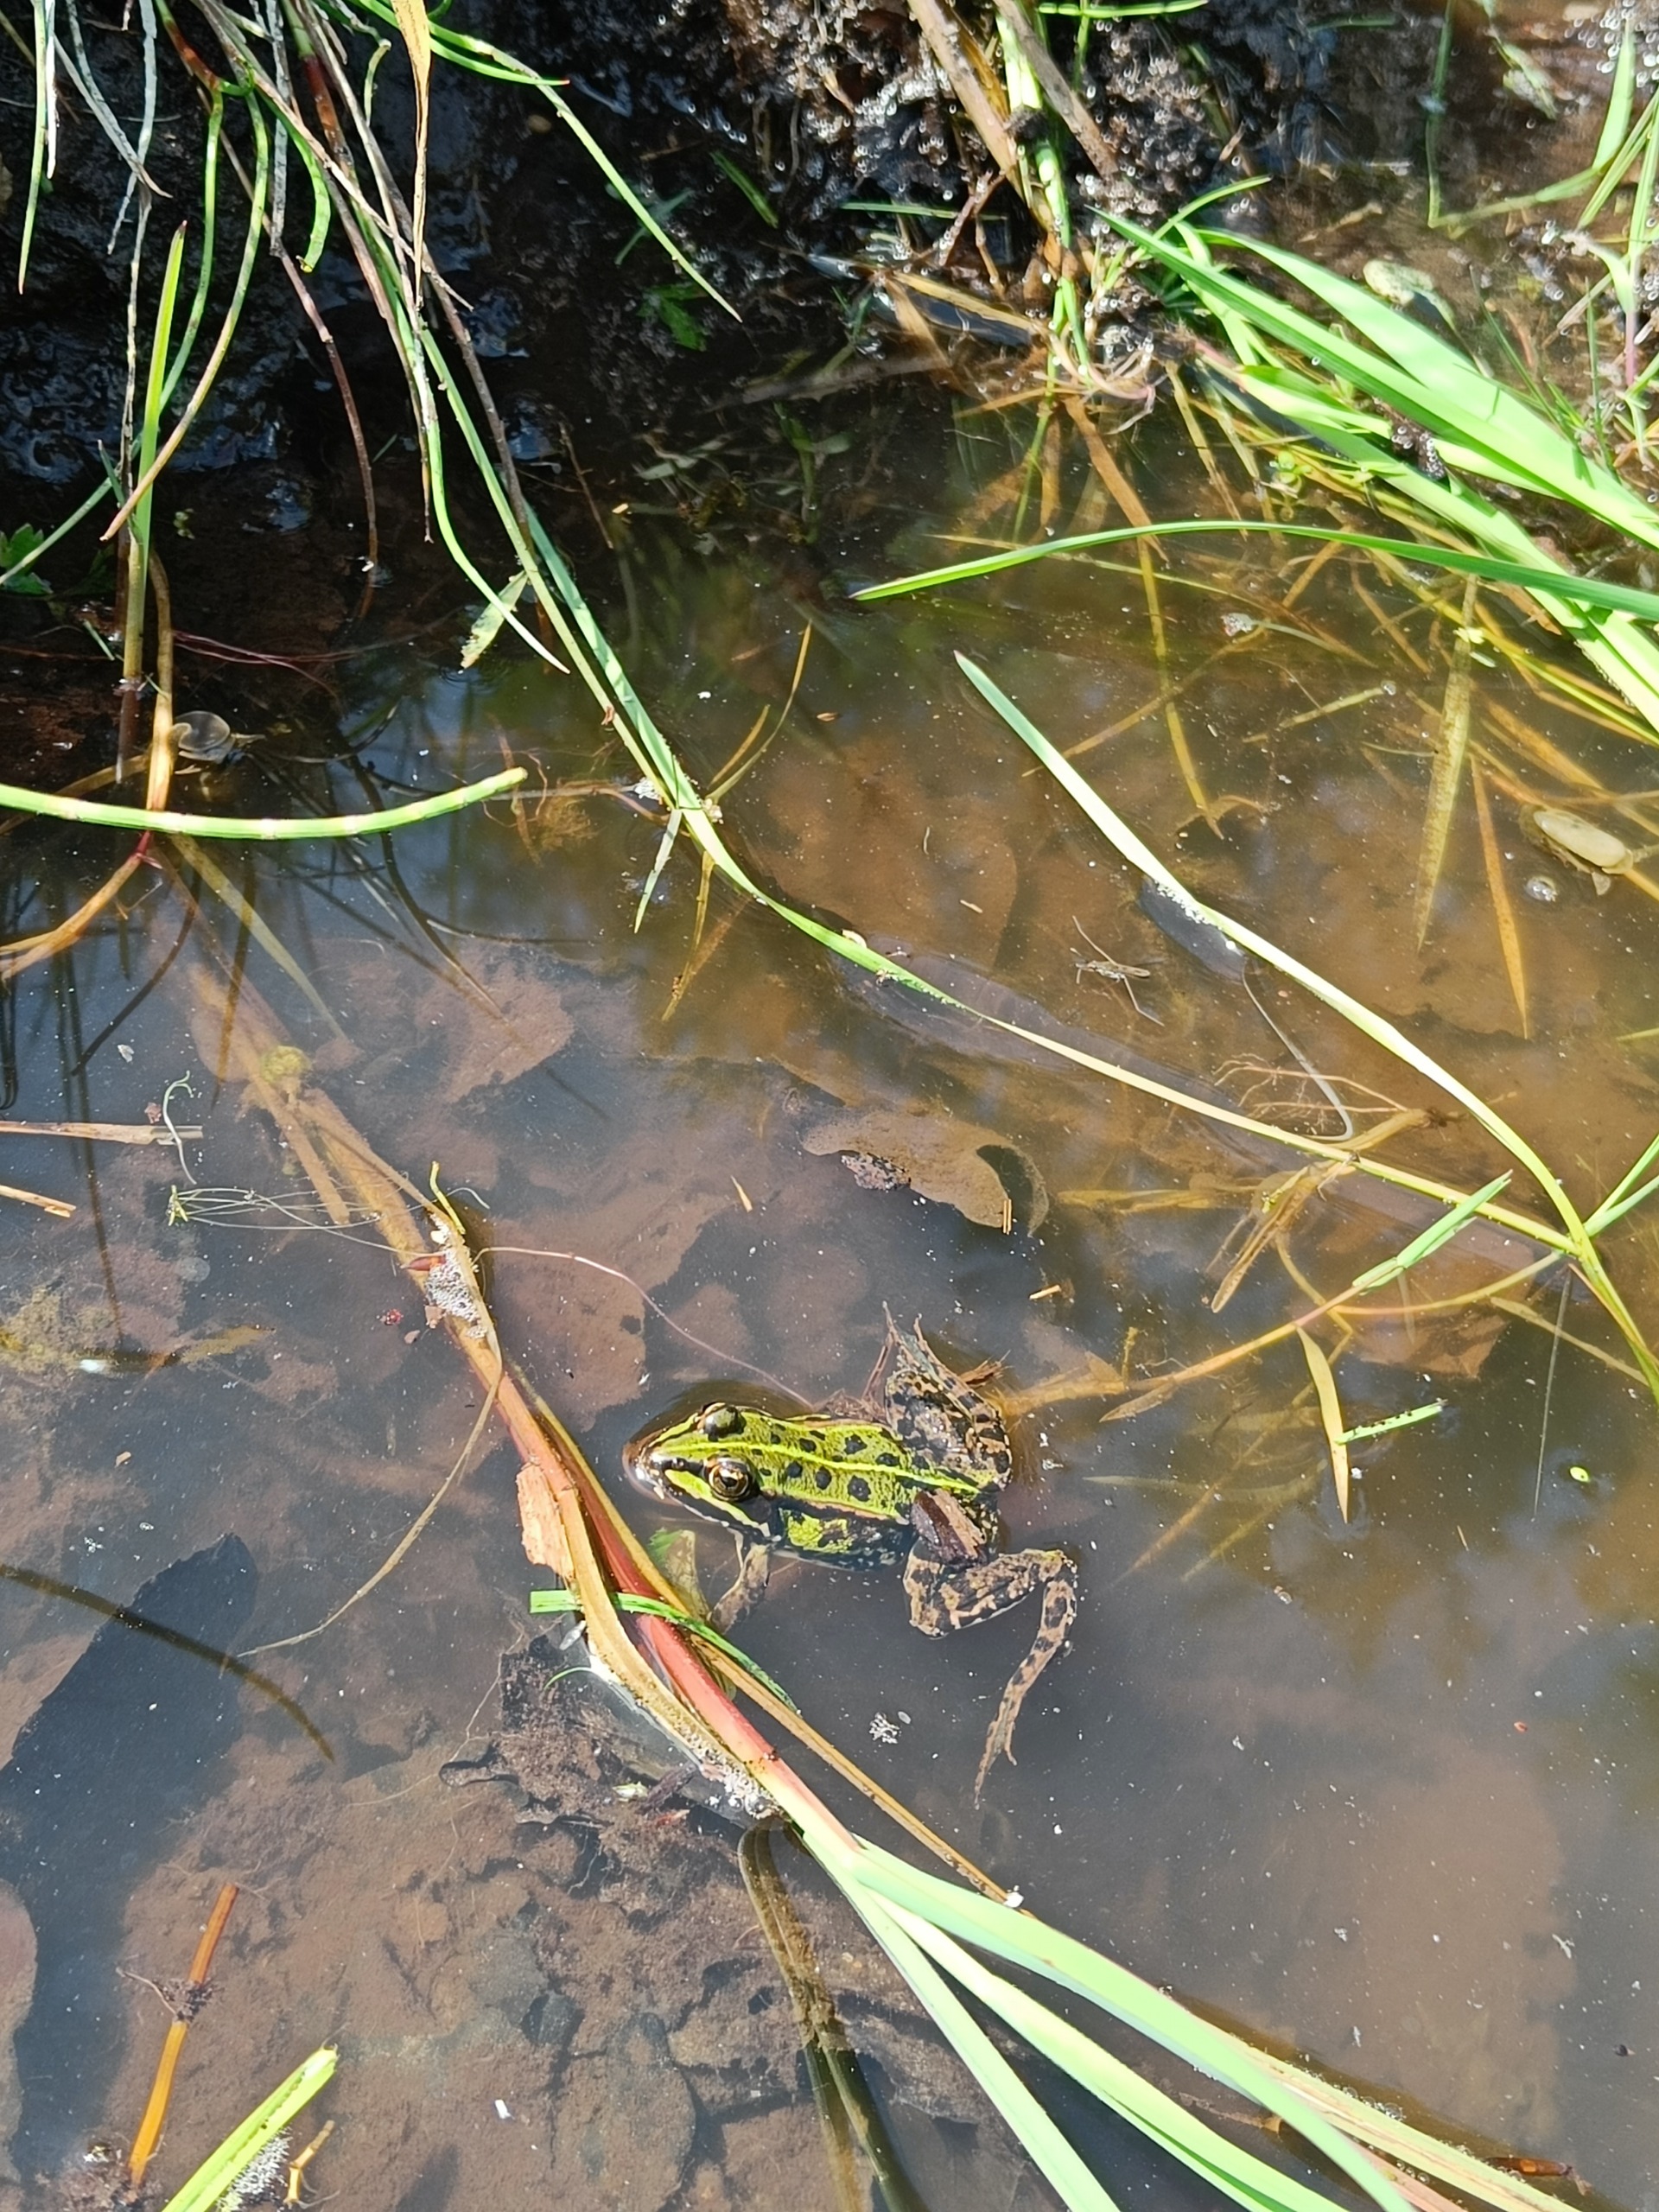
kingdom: Animalia
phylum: Chordata
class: Amphibia
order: Anura
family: Ranidae
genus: Pelophylax
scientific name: Pelophylax lessonae
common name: Grøn frø
